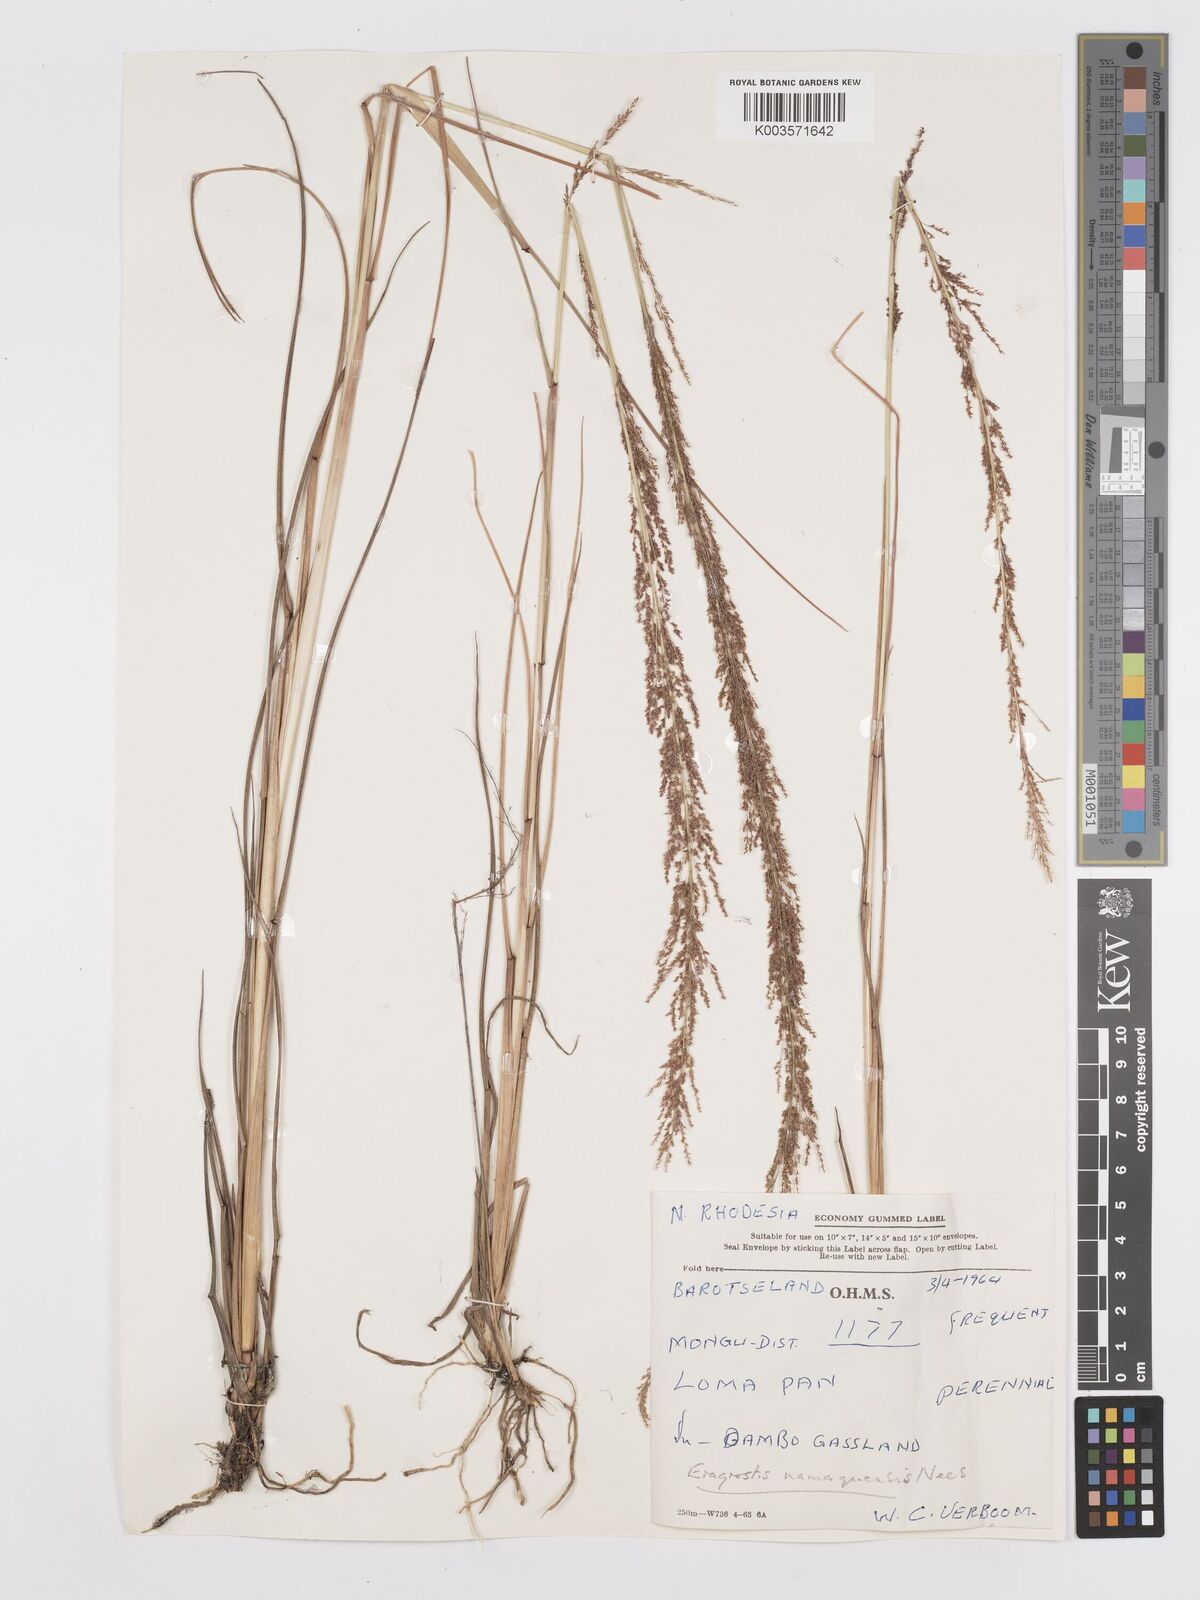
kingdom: Plantae
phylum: Tracheophyta
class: Liliopsida
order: Poales
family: Poaceae
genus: Eragrostis
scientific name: Eragrostis japonica
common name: Pond lovegrass
